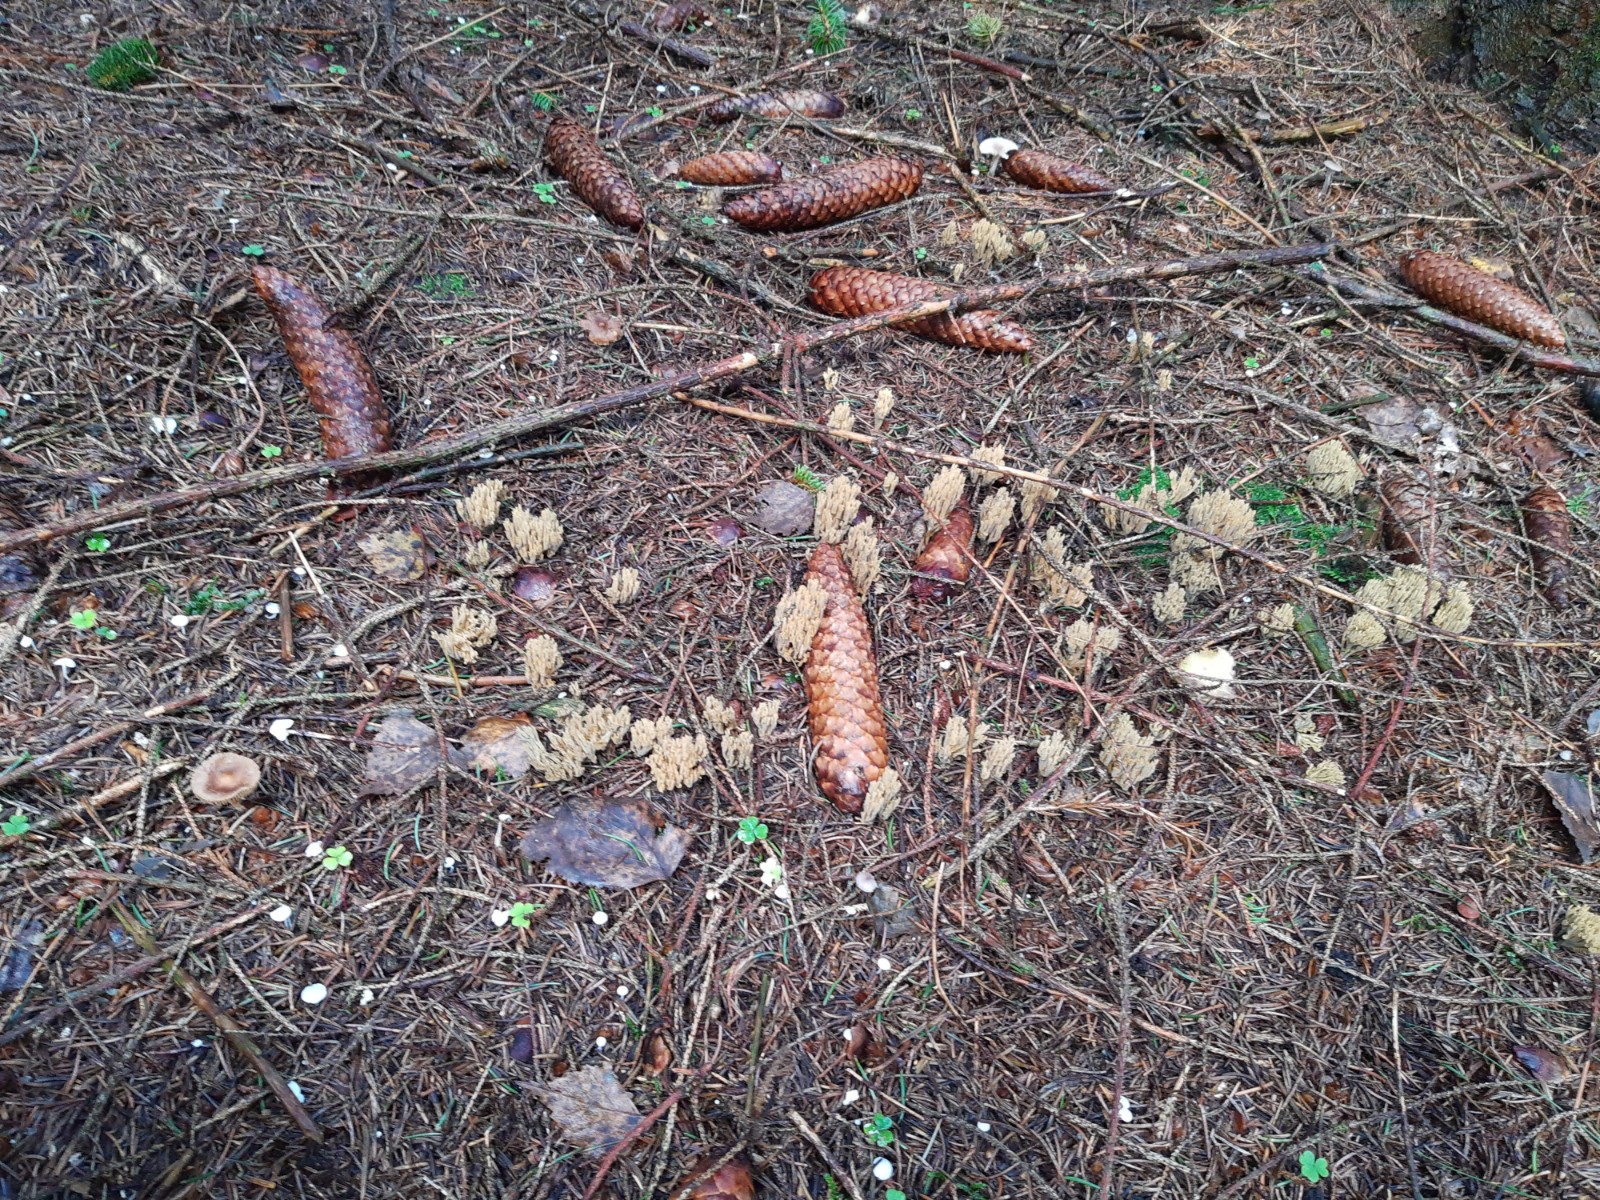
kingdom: Fungi
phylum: Basidiomycota
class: Agaricomycetes
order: Gomphales
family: Gomphaceae
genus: Phaeoclavulina
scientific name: Phaeoclavulina eumorpha
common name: gran-koralsvamp
